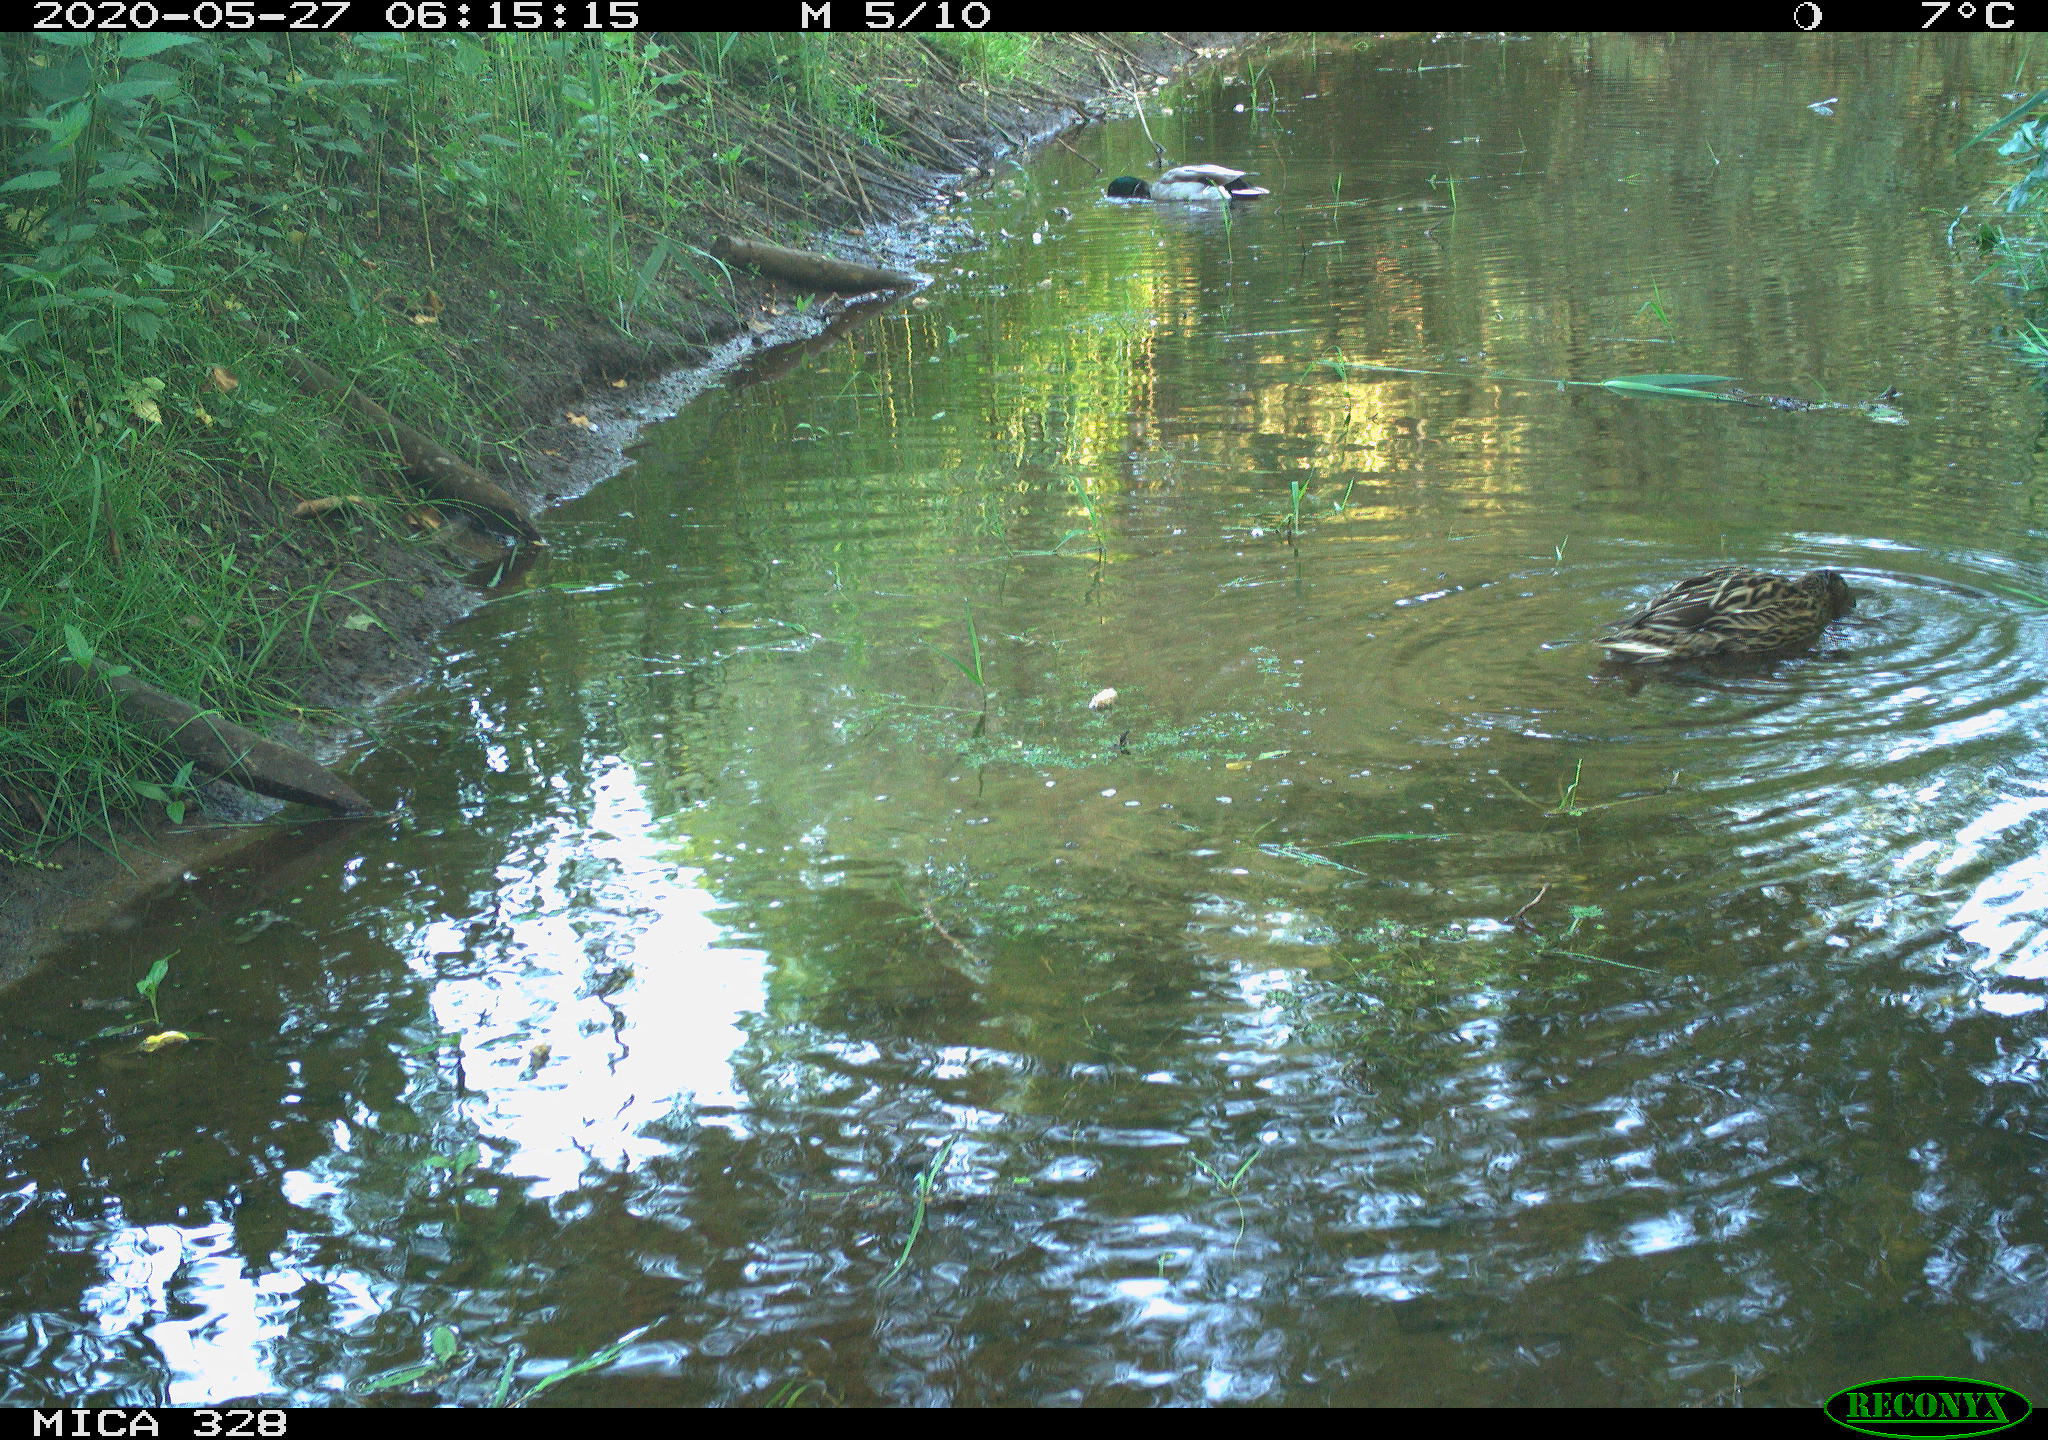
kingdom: Animalia
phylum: Chordata
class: Aves
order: Anseriformes
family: Anatidae
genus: Anas
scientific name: Anas platyrhynchos
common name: Mallard
